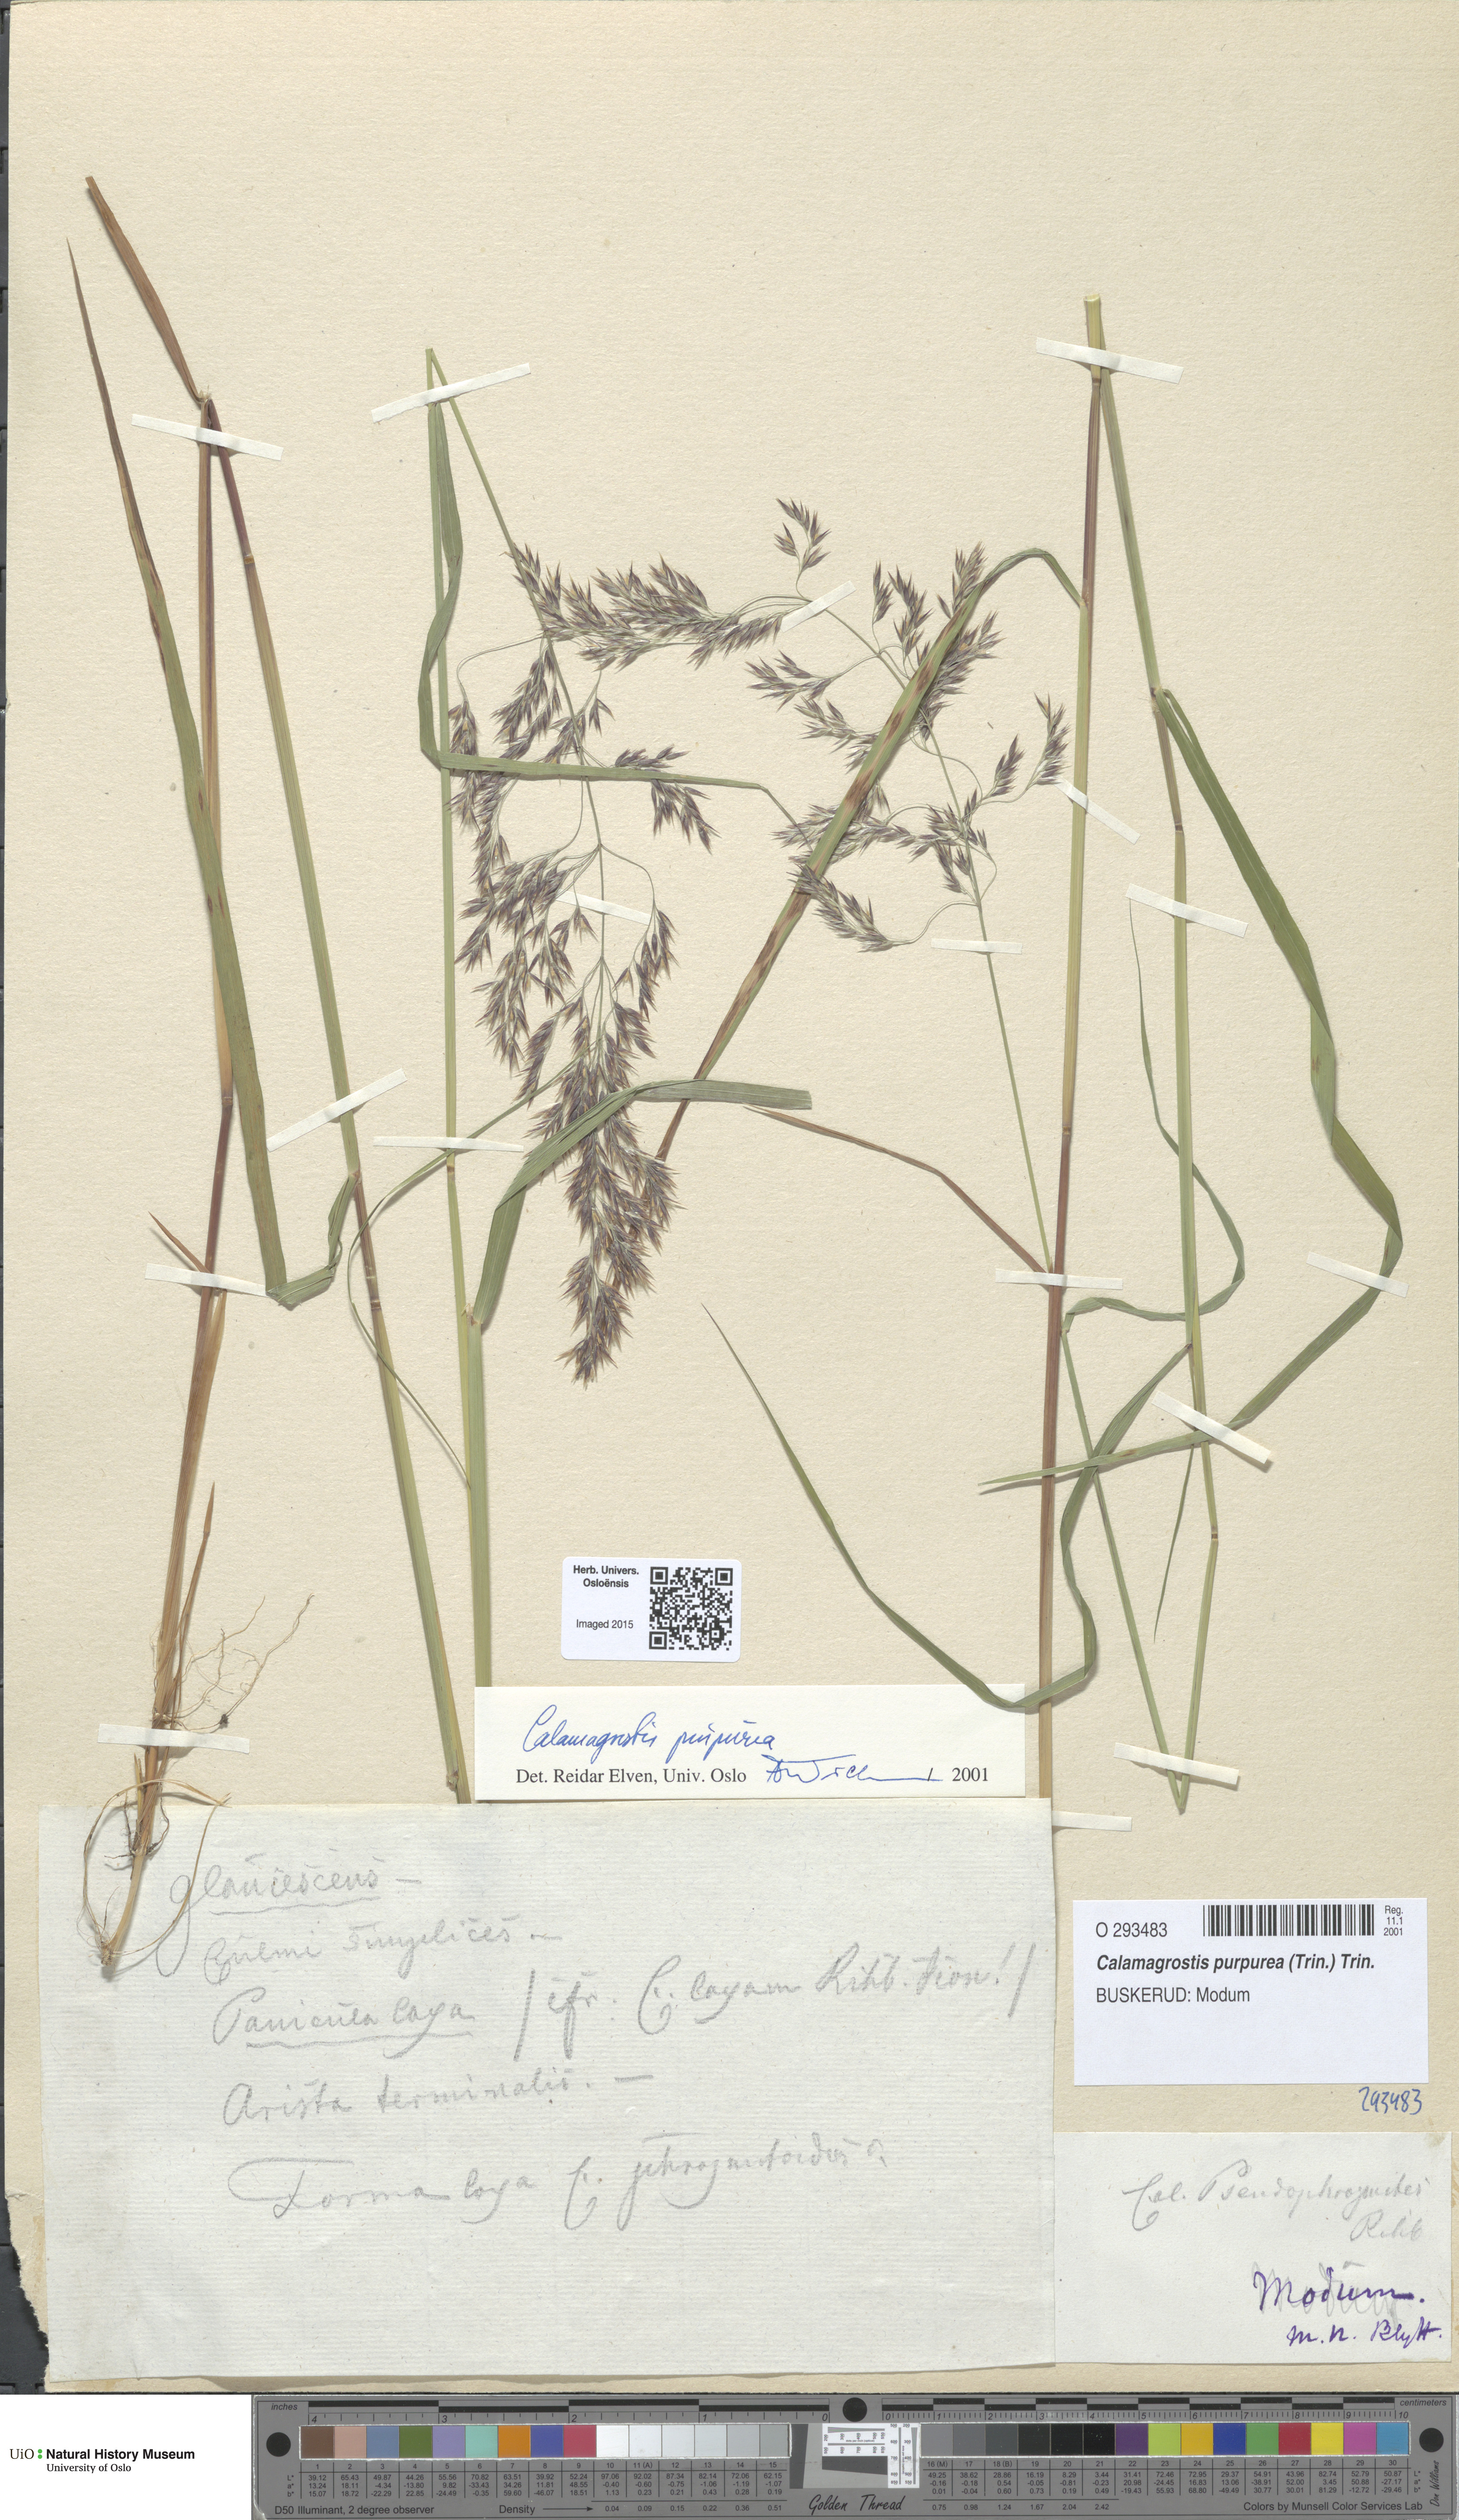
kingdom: Plantae
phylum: Tracheophyta
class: Liliopsida
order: Poales
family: Poaceae
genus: Calamagrostis
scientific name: Calamagrostis purpurea
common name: Scandinavian small-reed
